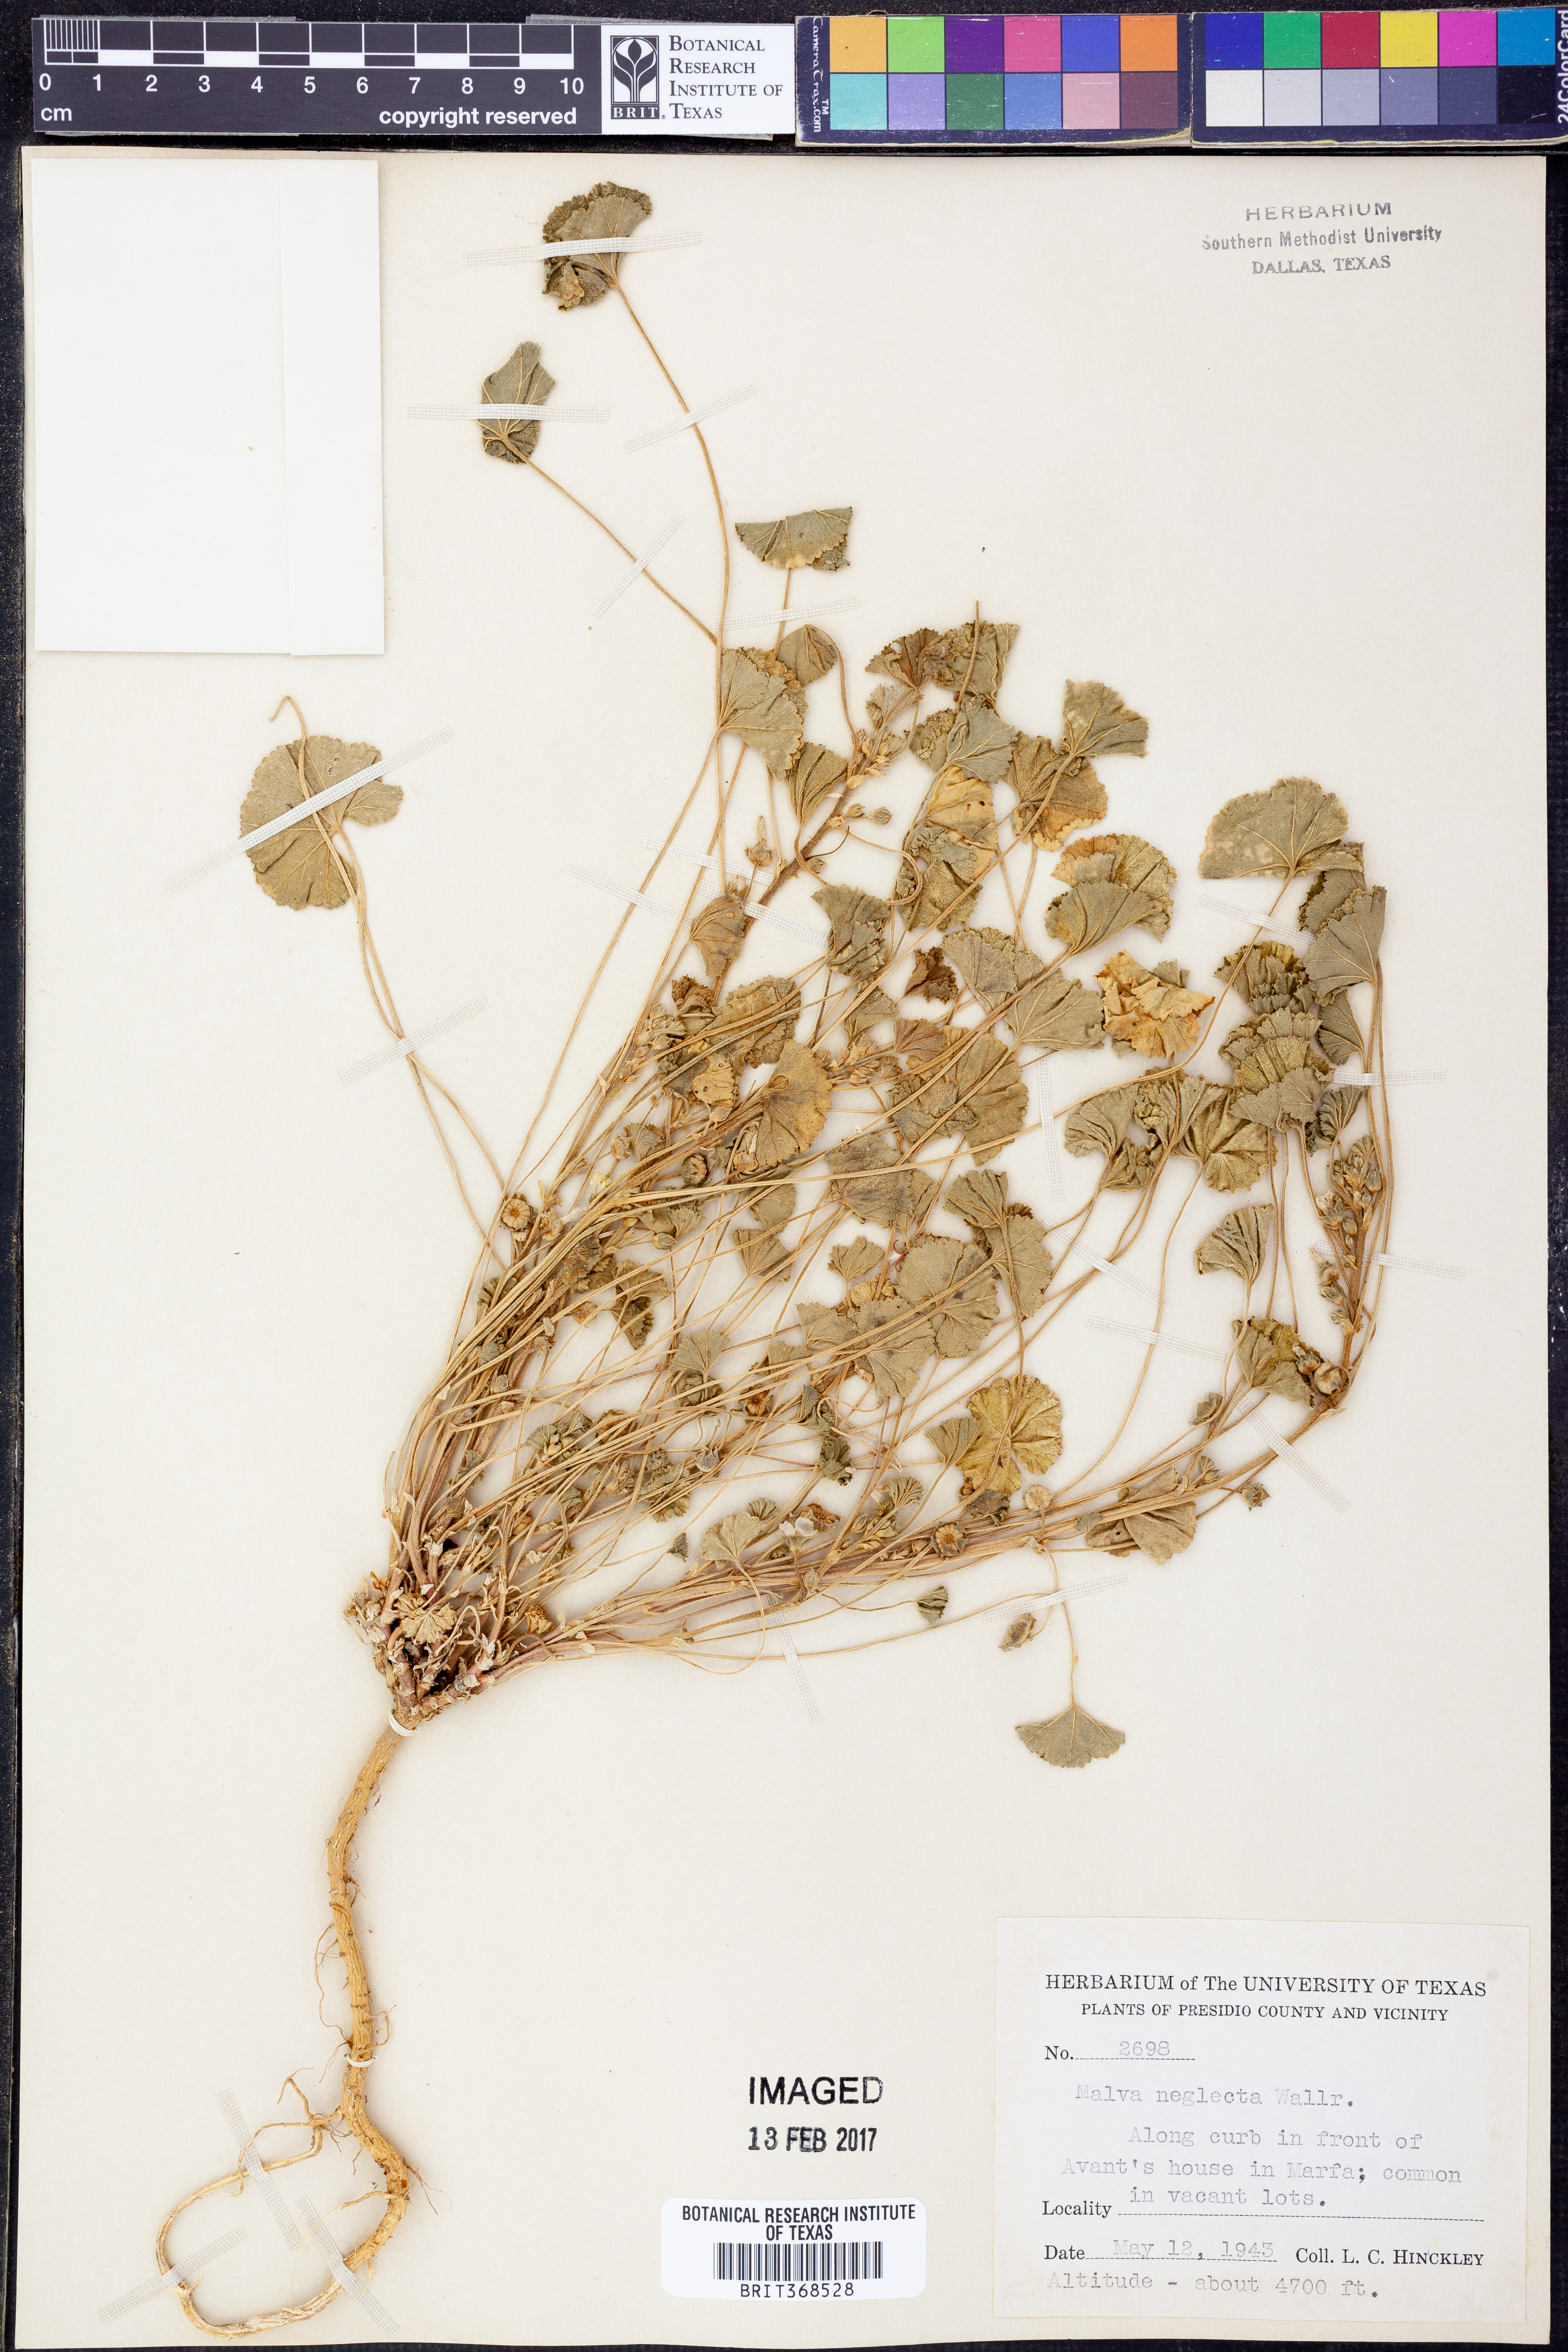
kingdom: Plantae
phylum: Tracheophyta
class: Magnoliopsida
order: Malvales
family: Malvaceae
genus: Malva
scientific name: Malva neglecta
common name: Common mallow
